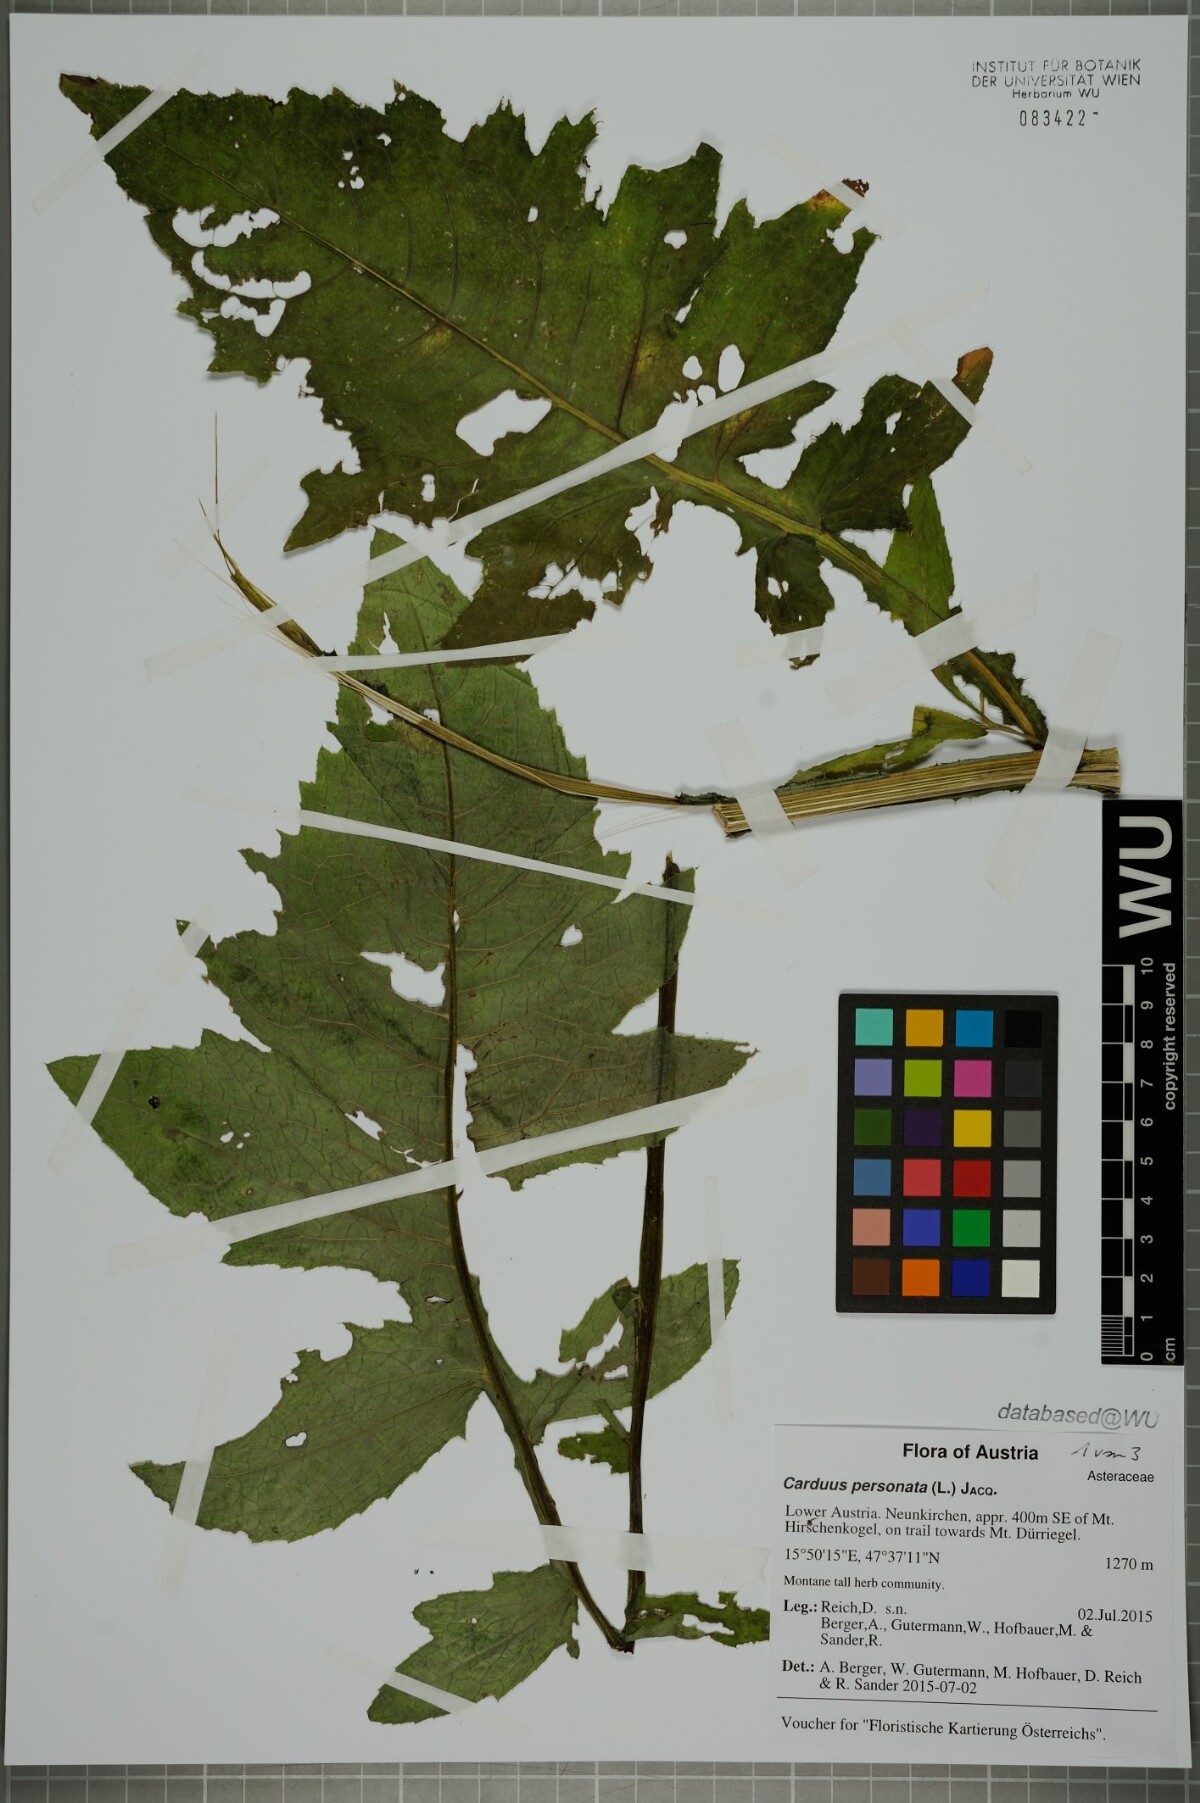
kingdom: Plantae
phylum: Tracheophyta
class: Magnoliopsida
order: Asterales
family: Asteraceae
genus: Carduus
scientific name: Carduus personata
